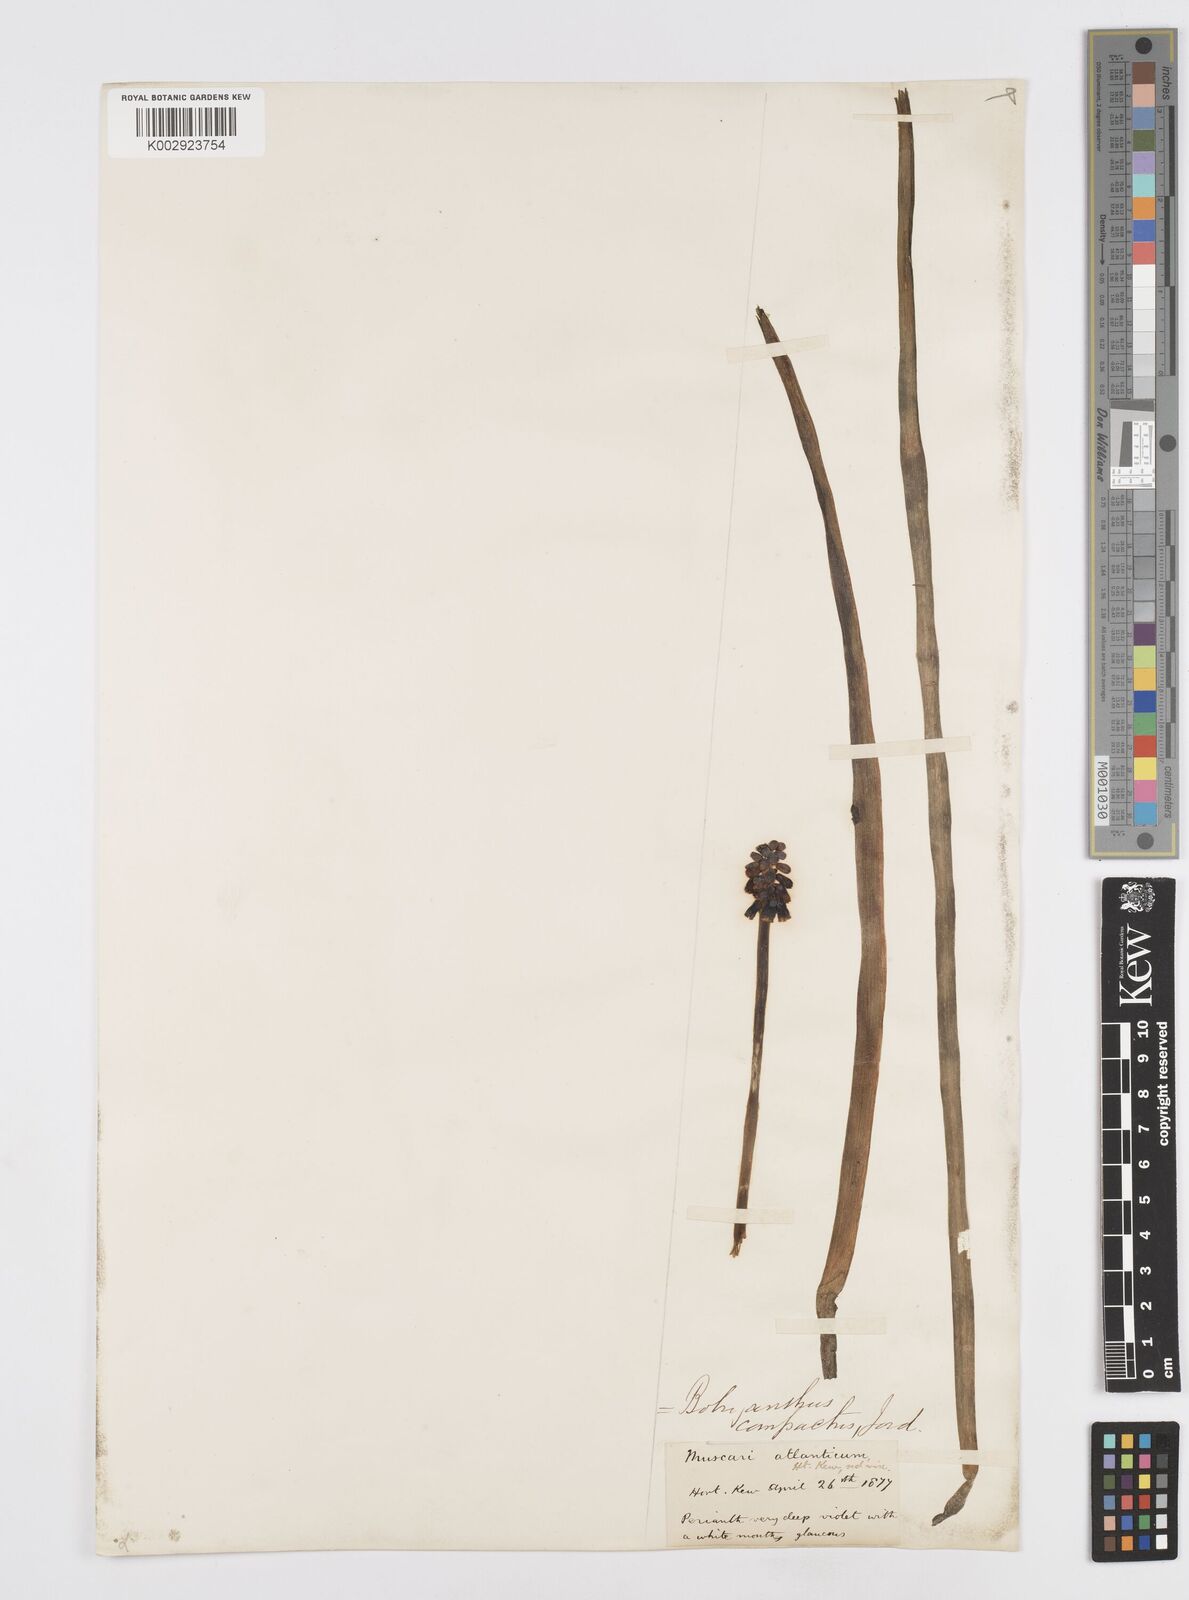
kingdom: Plantae
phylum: Tracheophyta
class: Liliopsida
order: Asparagales
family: Asparagaceae
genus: Muscari
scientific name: Muscari neglectum
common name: Grape-hyacinth
